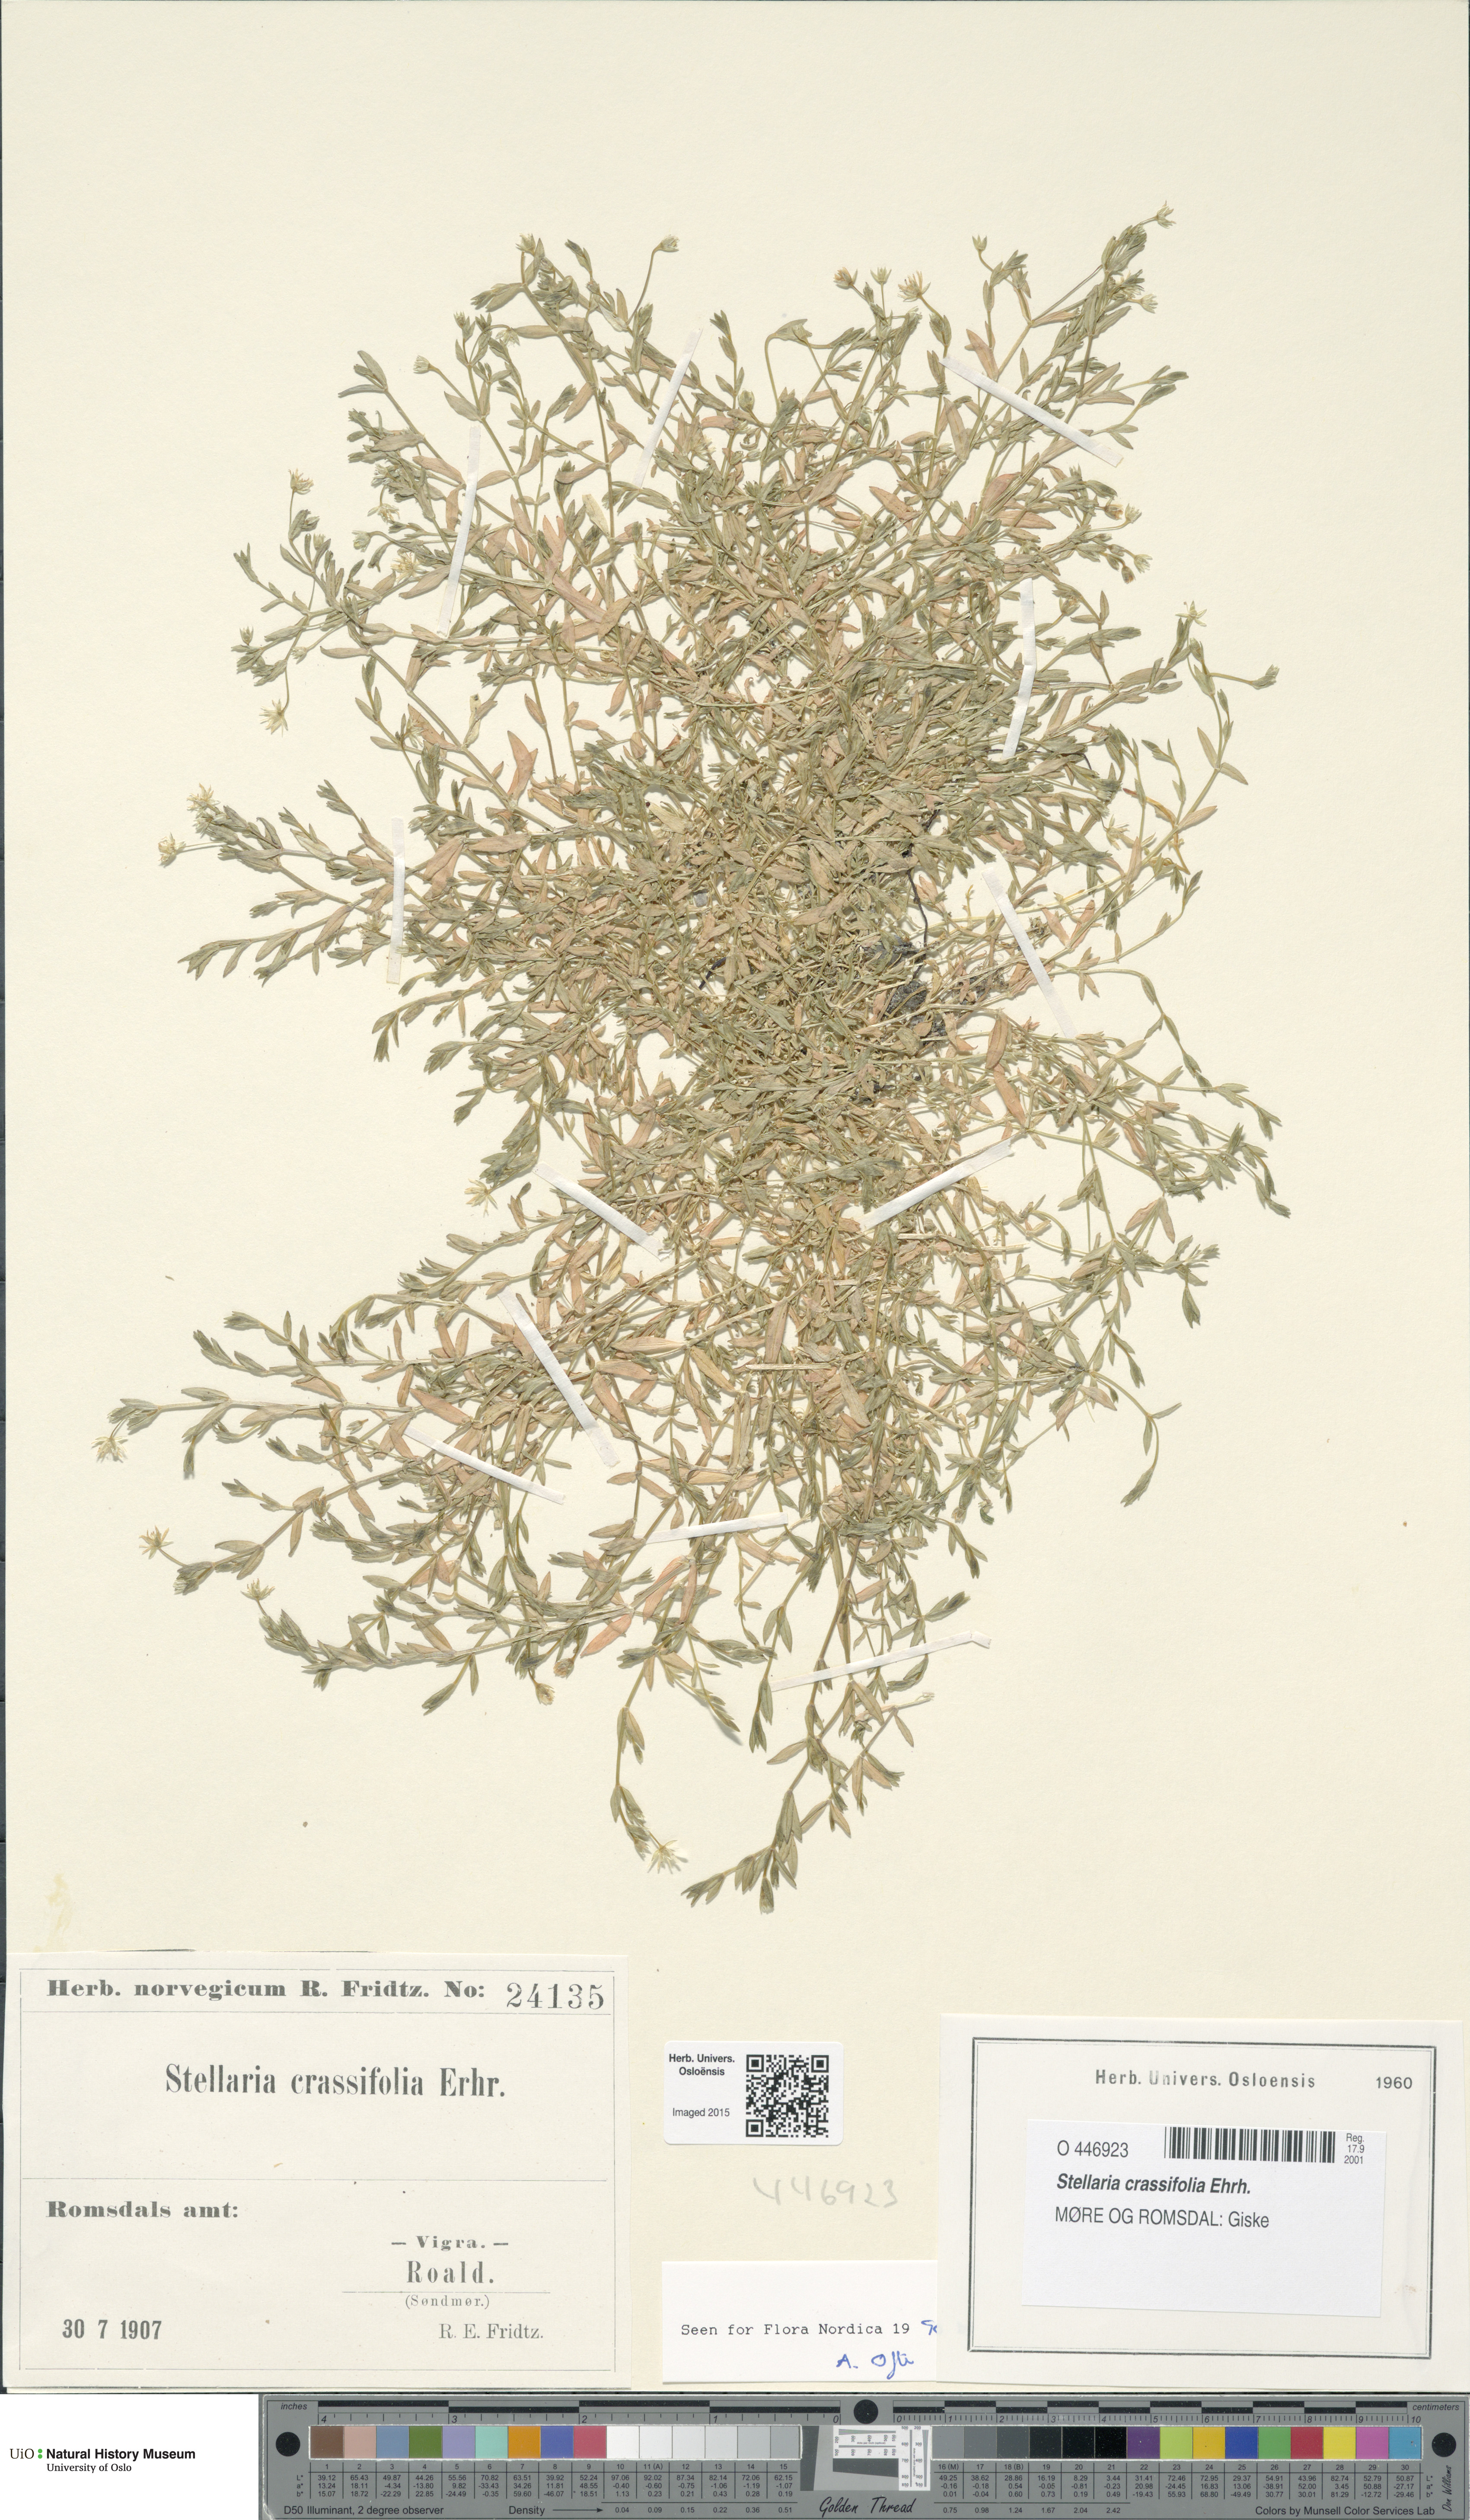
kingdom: Plantae
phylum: Tracheophyta
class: Magnoliopsida
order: Caryophyllales
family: Caryophyllaceae
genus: Stellaria
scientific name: Stellaria crassifolia
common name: Fleshy starwort
